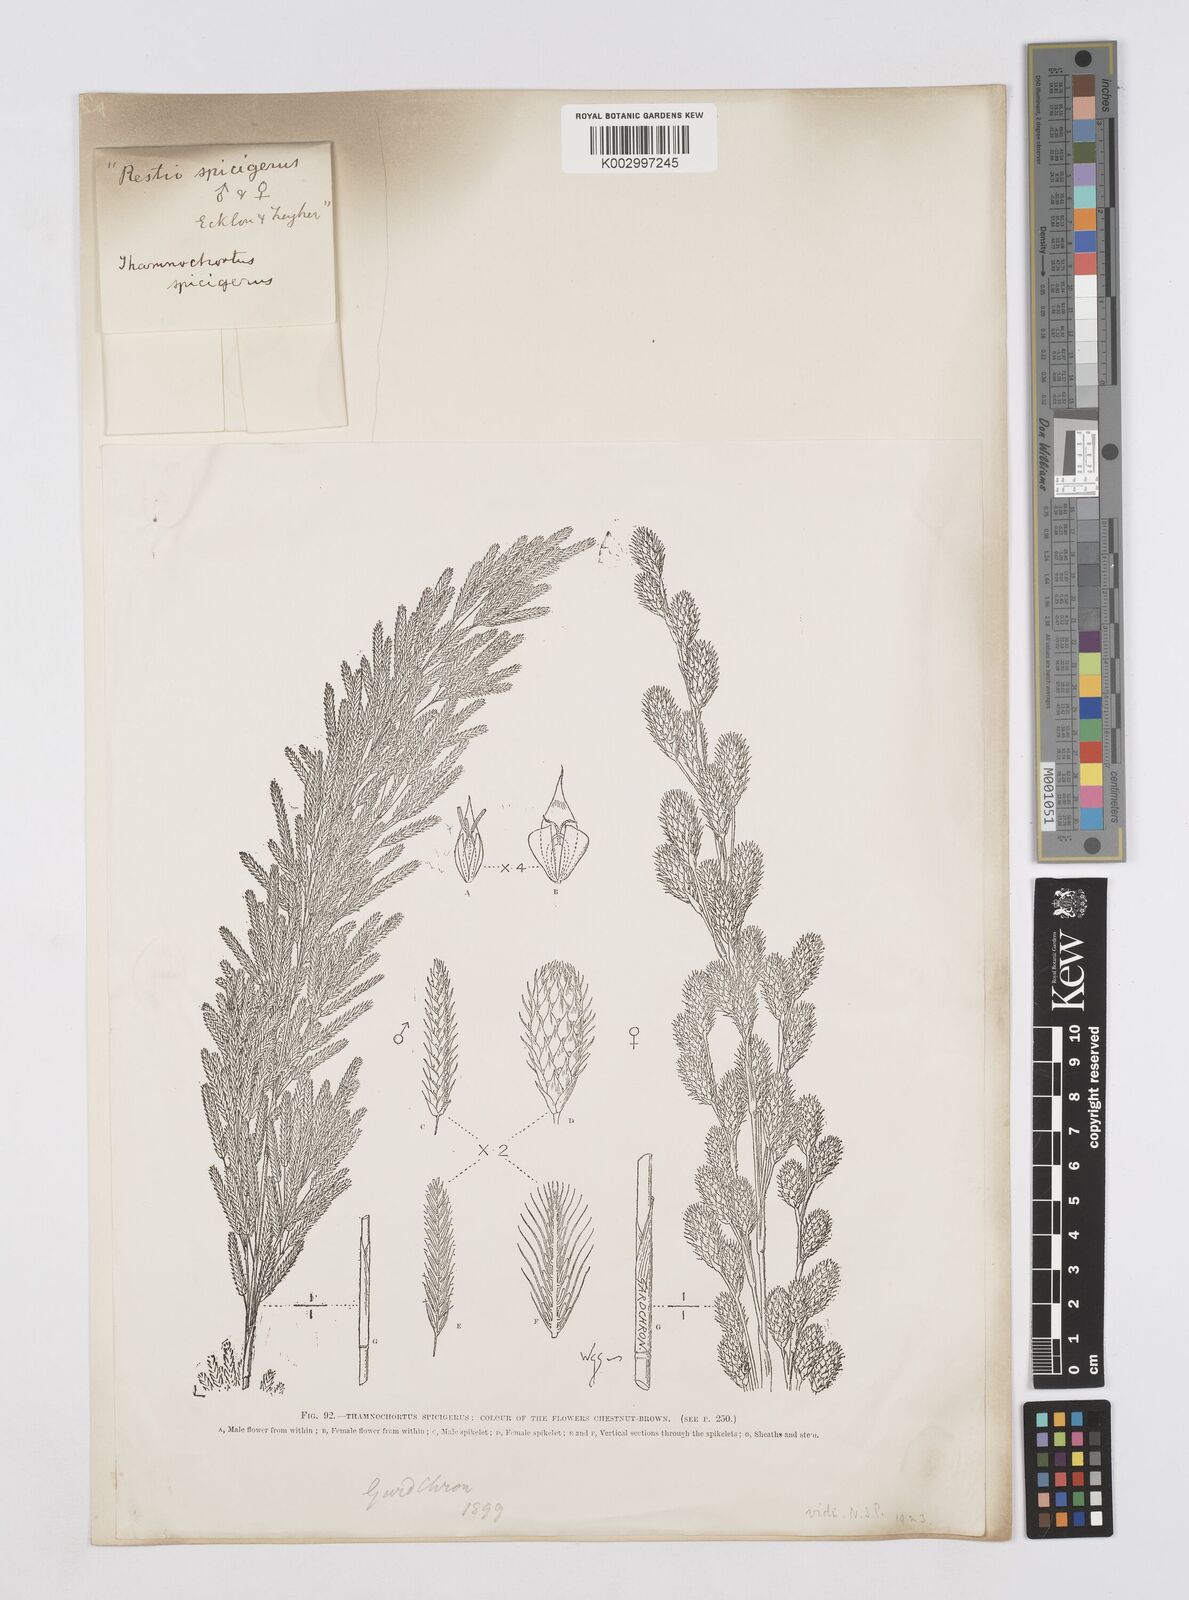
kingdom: Plantae
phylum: Tracheophyta
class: Liliopsida
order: Poales
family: Restionaceae
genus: Thamnochortus
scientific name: Thamnochortus spicigerus
